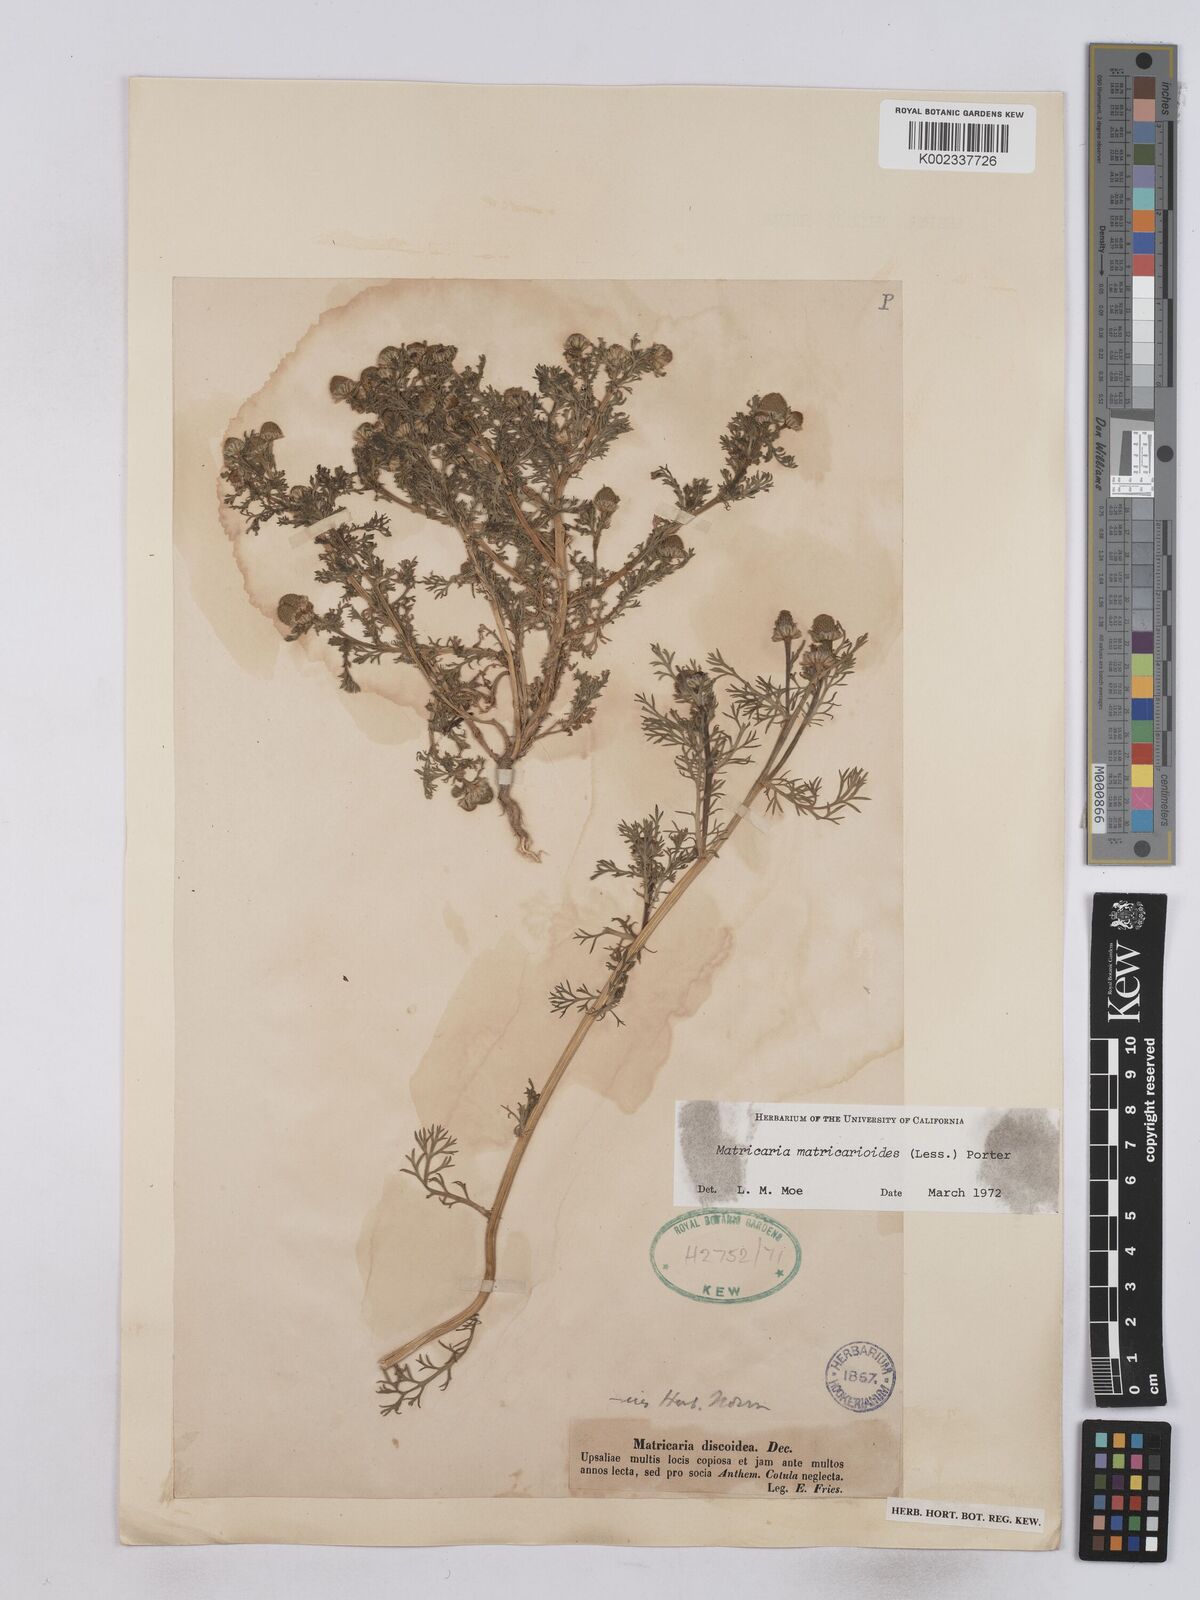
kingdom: Plantae
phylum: Tracheophyta
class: Magnoliopsida
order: Asterales
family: Asteraceae
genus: Matricaria
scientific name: Matricaria discoidea
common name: Disc mayweed
